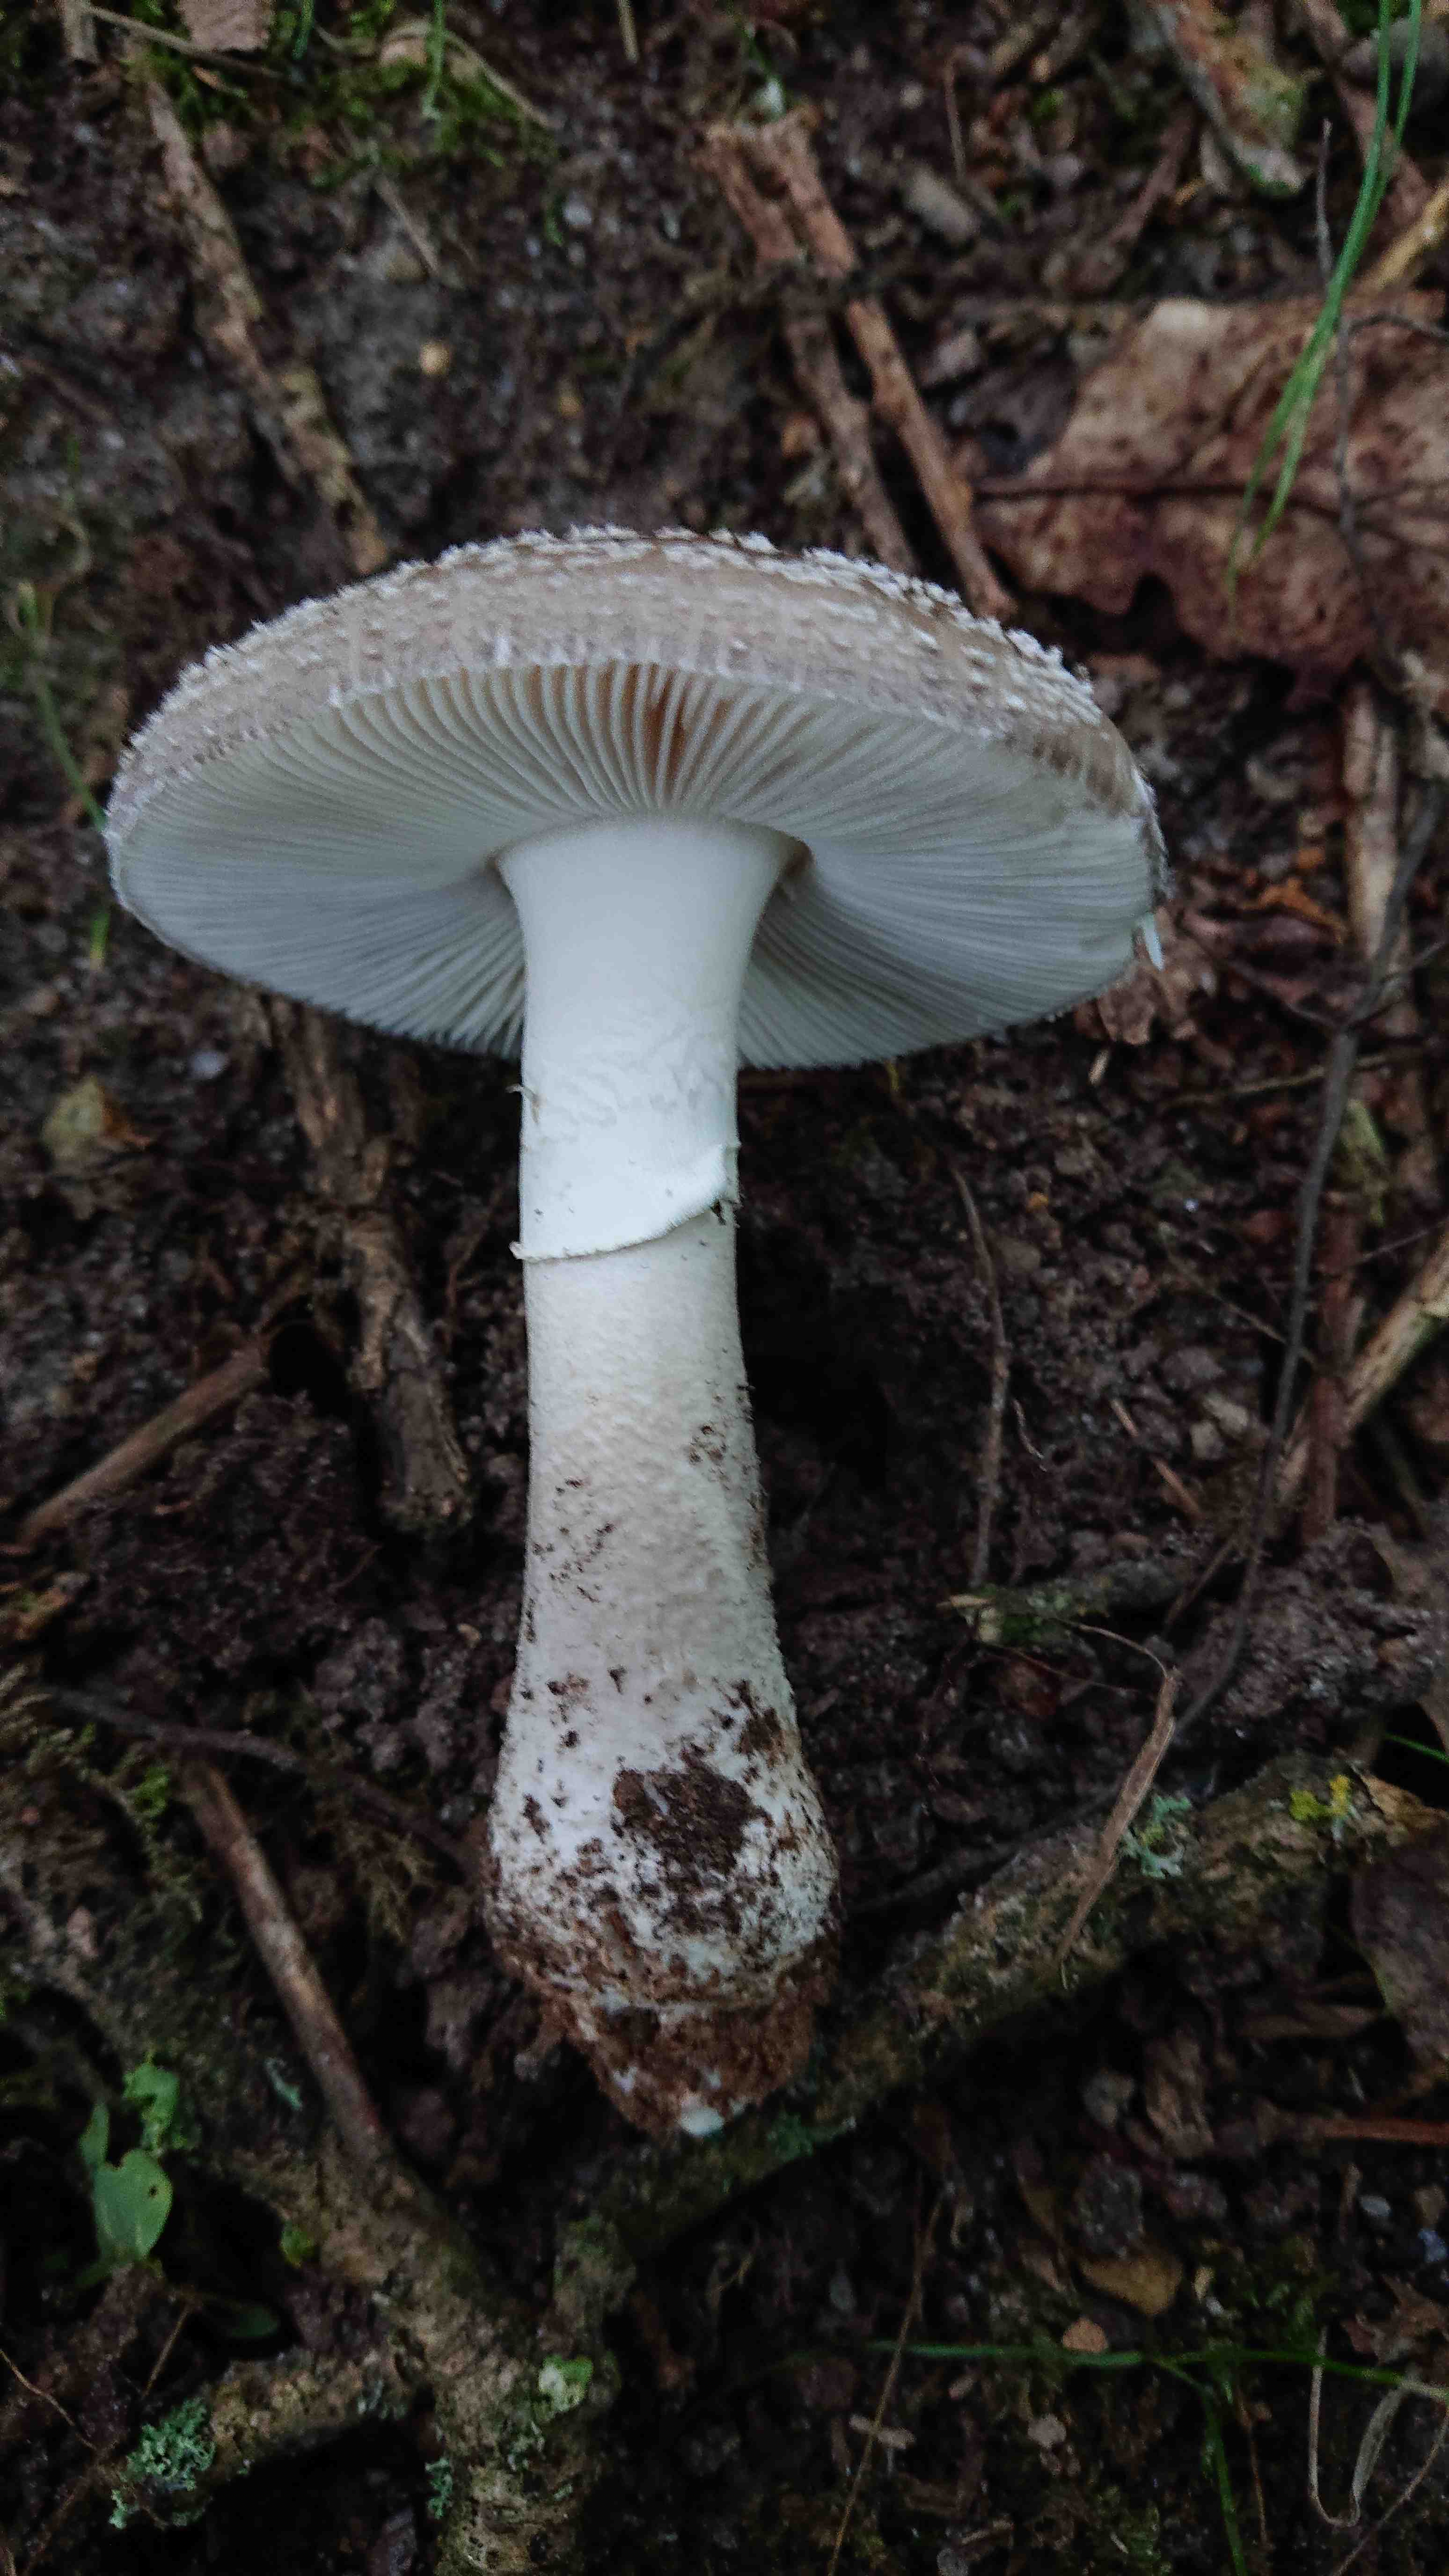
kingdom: Fungi
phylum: Basidiomycota
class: Agaricomycetes
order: Agaricales
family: Amanitaceae
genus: Amanita
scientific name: Amanita
